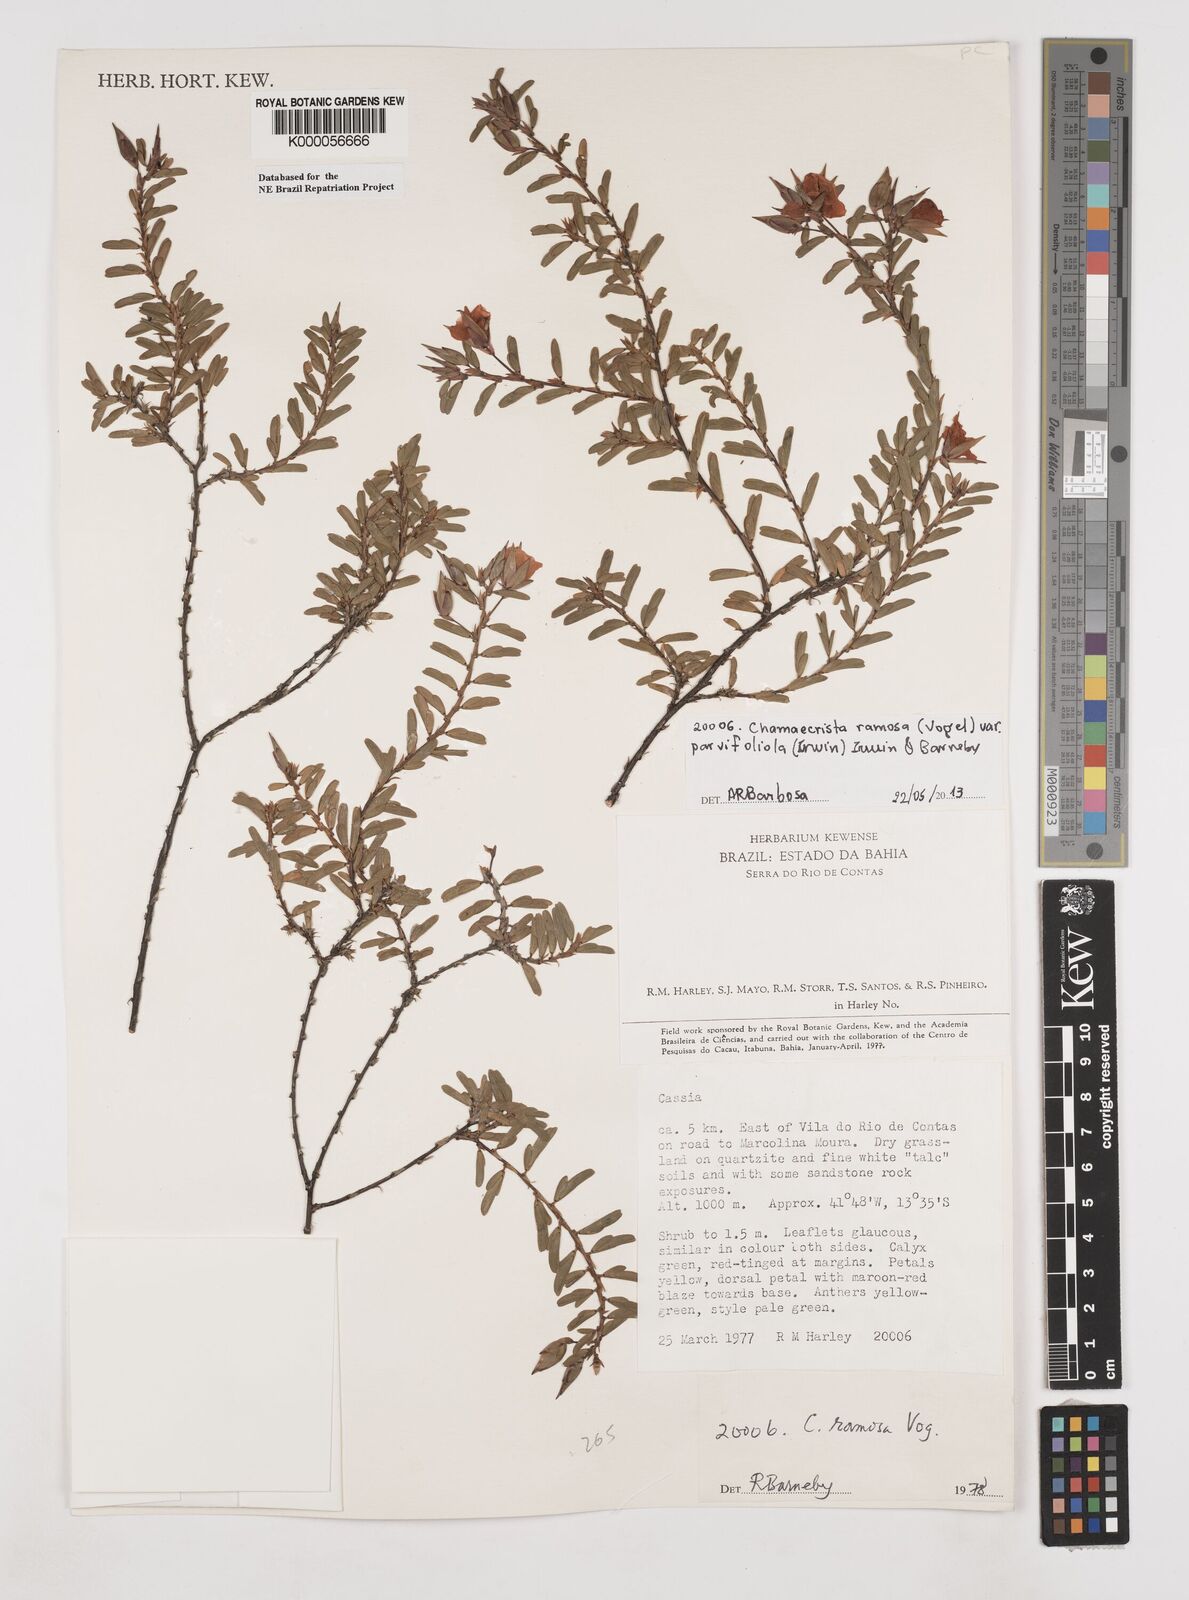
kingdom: Plantae
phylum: Tracheophyta
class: Magnoliopsida
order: Fabales
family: Fabaceae
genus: Chamaecrista
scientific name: Chamaecrista ramosa
